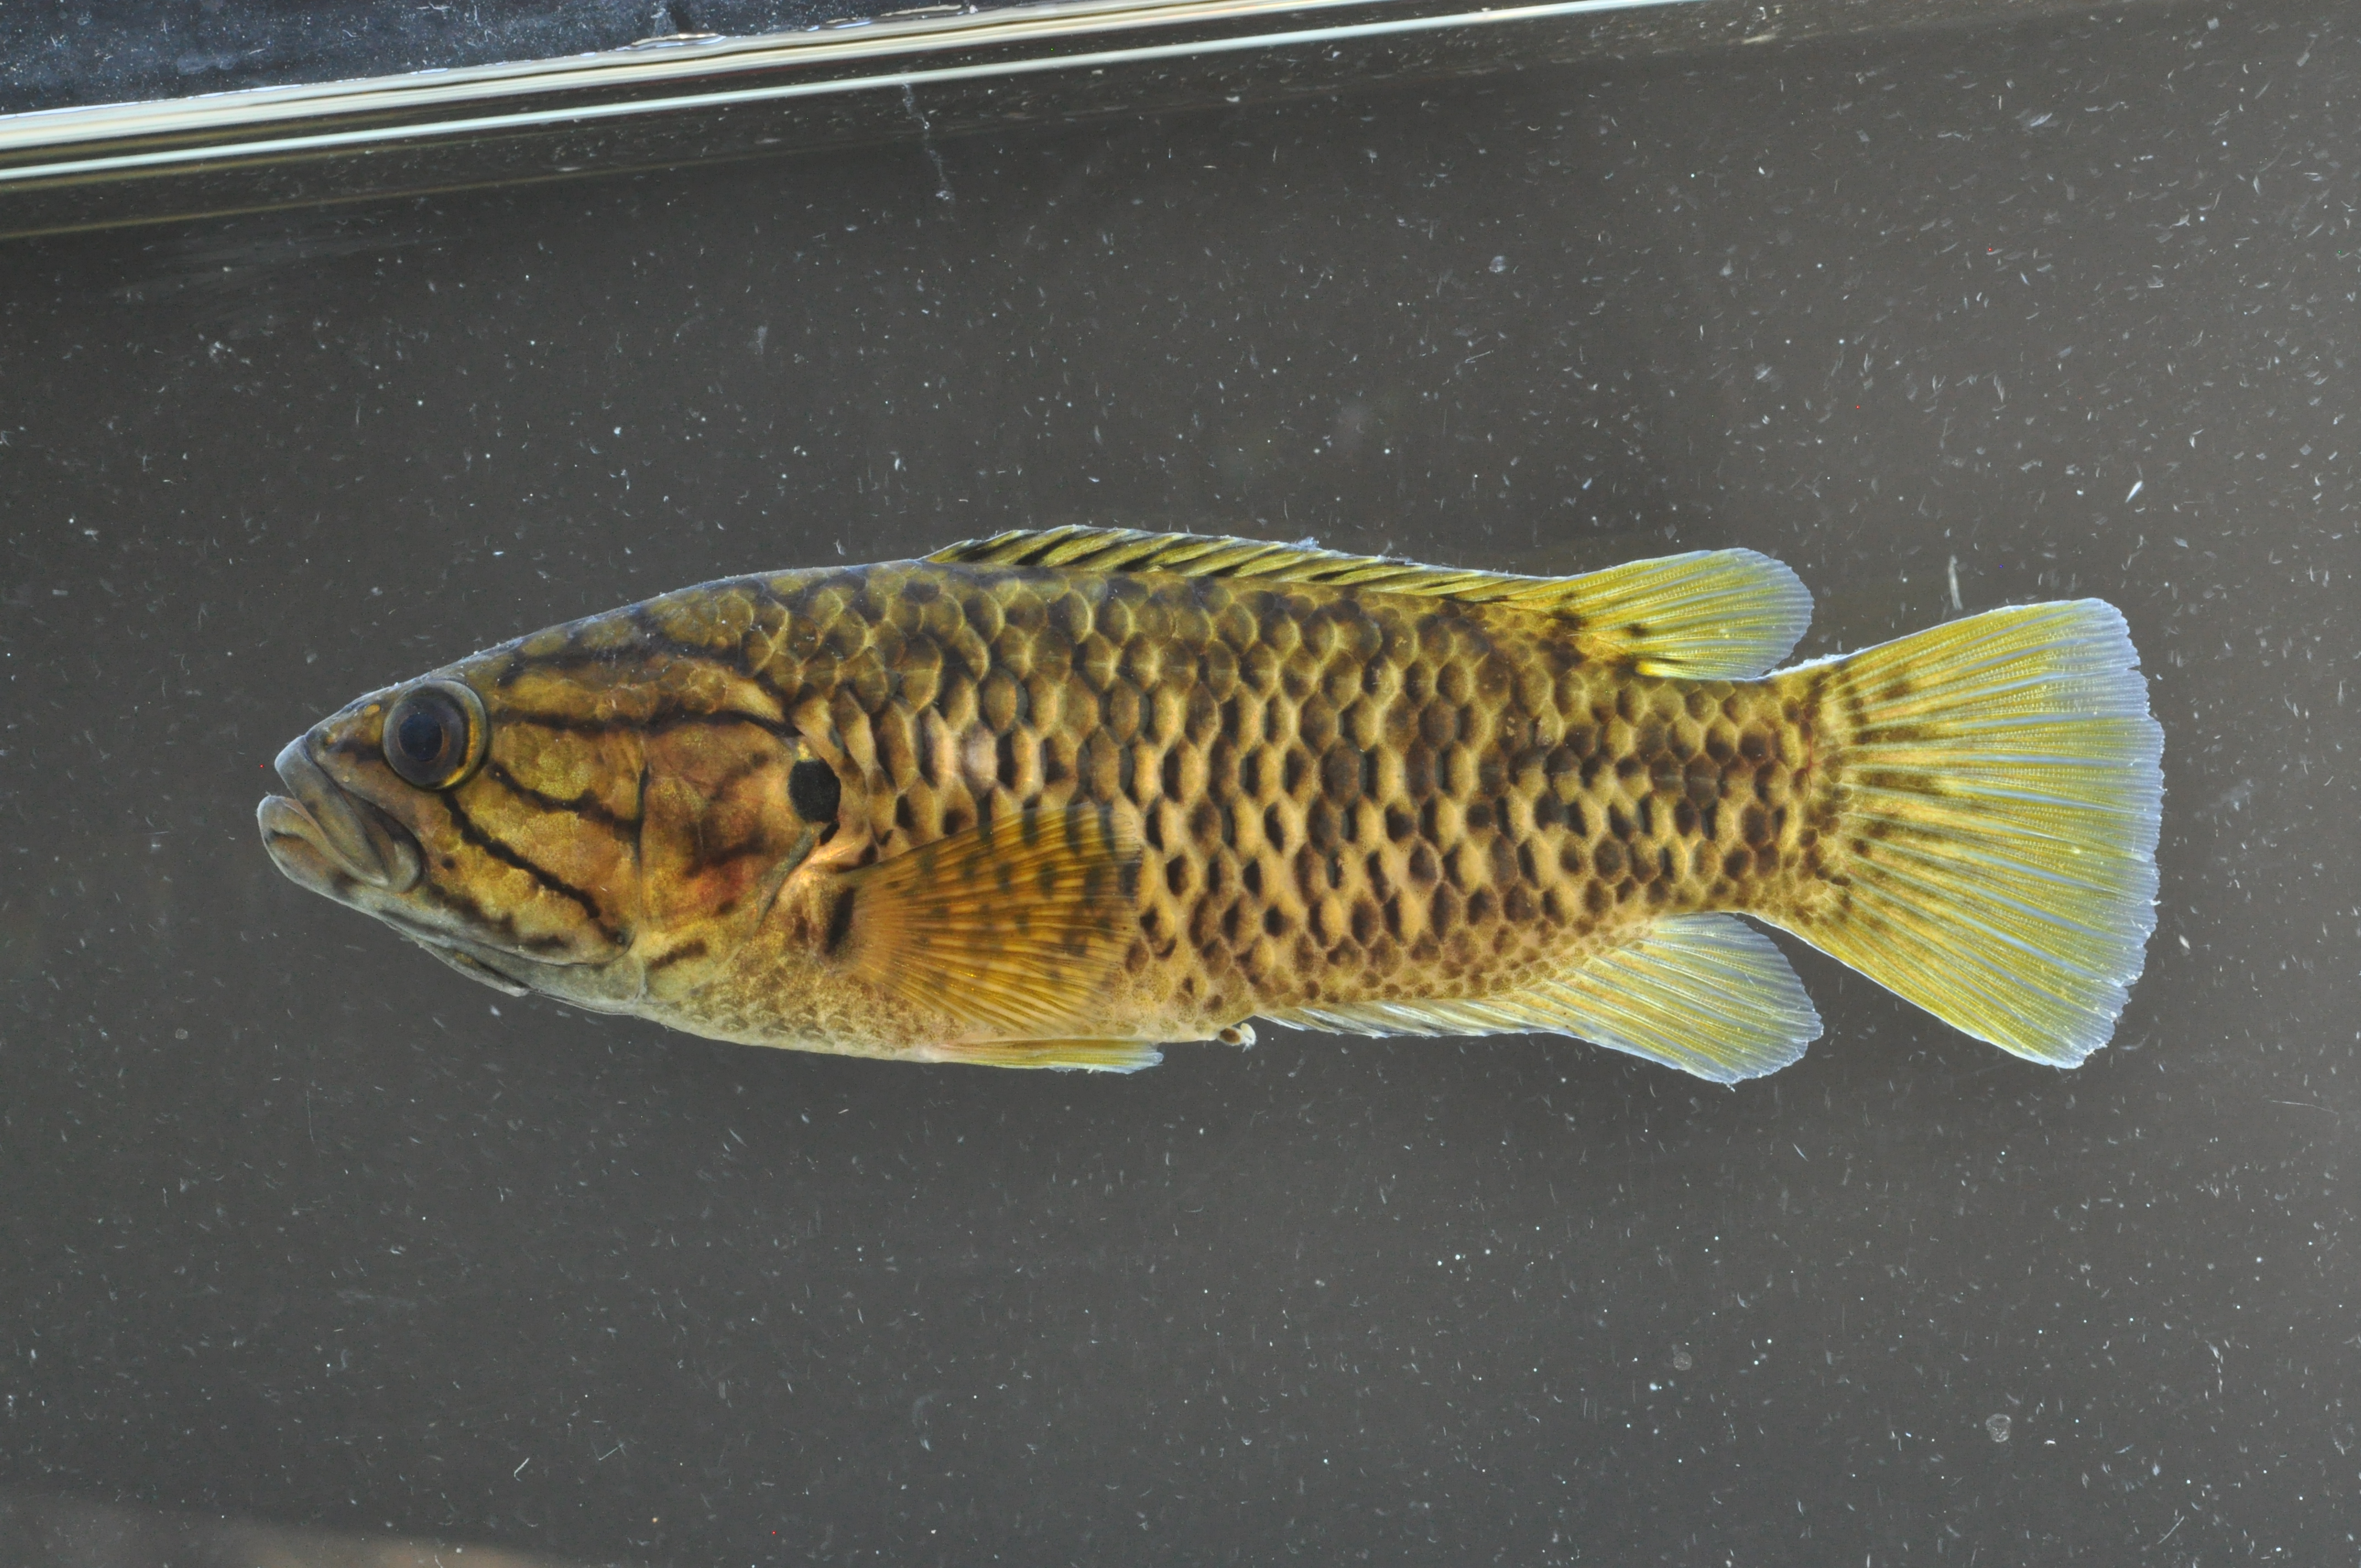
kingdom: Animalia
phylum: Chordata
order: Perciformes
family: Anabantidae
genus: Sandelia
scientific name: Sandelia capensis
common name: Cape kurper
